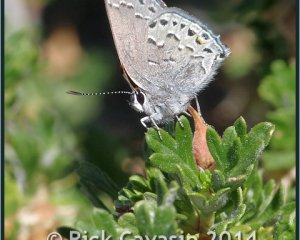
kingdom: Animalia
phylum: Arthropoda
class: Insecta
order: Lepidoptera
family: Lycaenidae
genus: Satyrium
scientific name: Satyrium behrii
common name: Behr's Hairstreak
